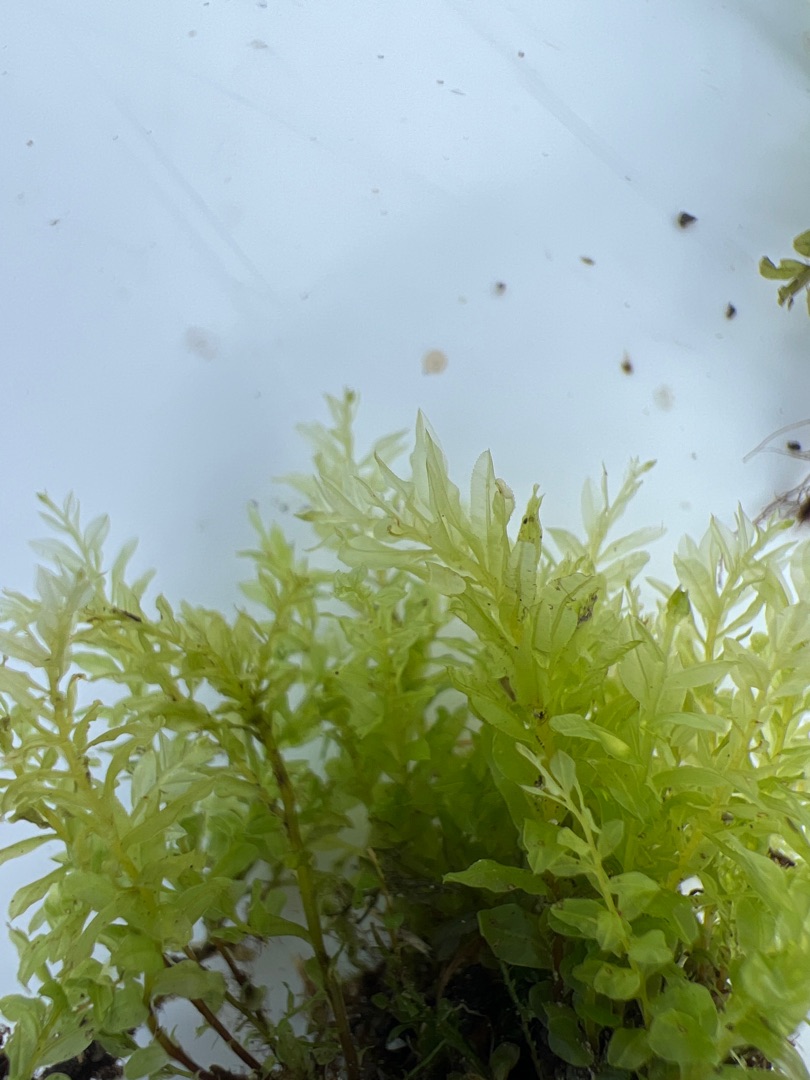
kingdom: Plantae
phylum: Bryophyta
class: Bryopsida
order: Bryales
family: Mniaceae
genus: Plagiomnium
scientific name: Plagiomnium undulatum
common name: Bølget krybstjerne
